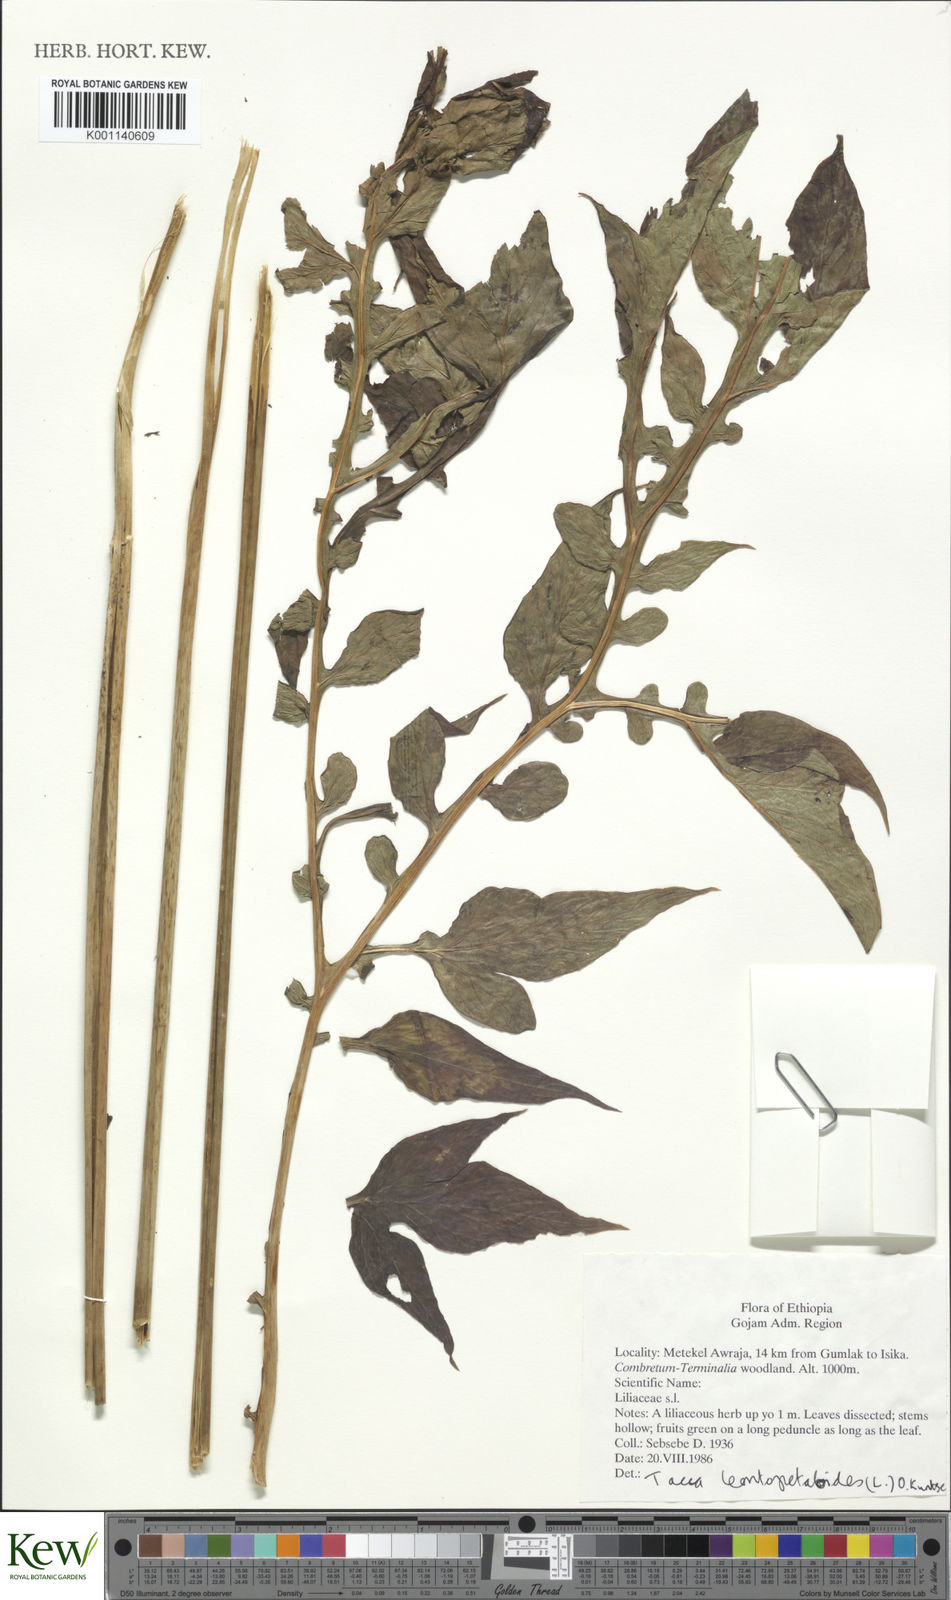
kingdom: Plantae
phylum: Tracheophyta
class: Liliopsida
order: Dioscoreales
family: Dioscoreaceae
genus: Tacca
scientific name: Tacca leontopetaloides
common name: Arrowroot
